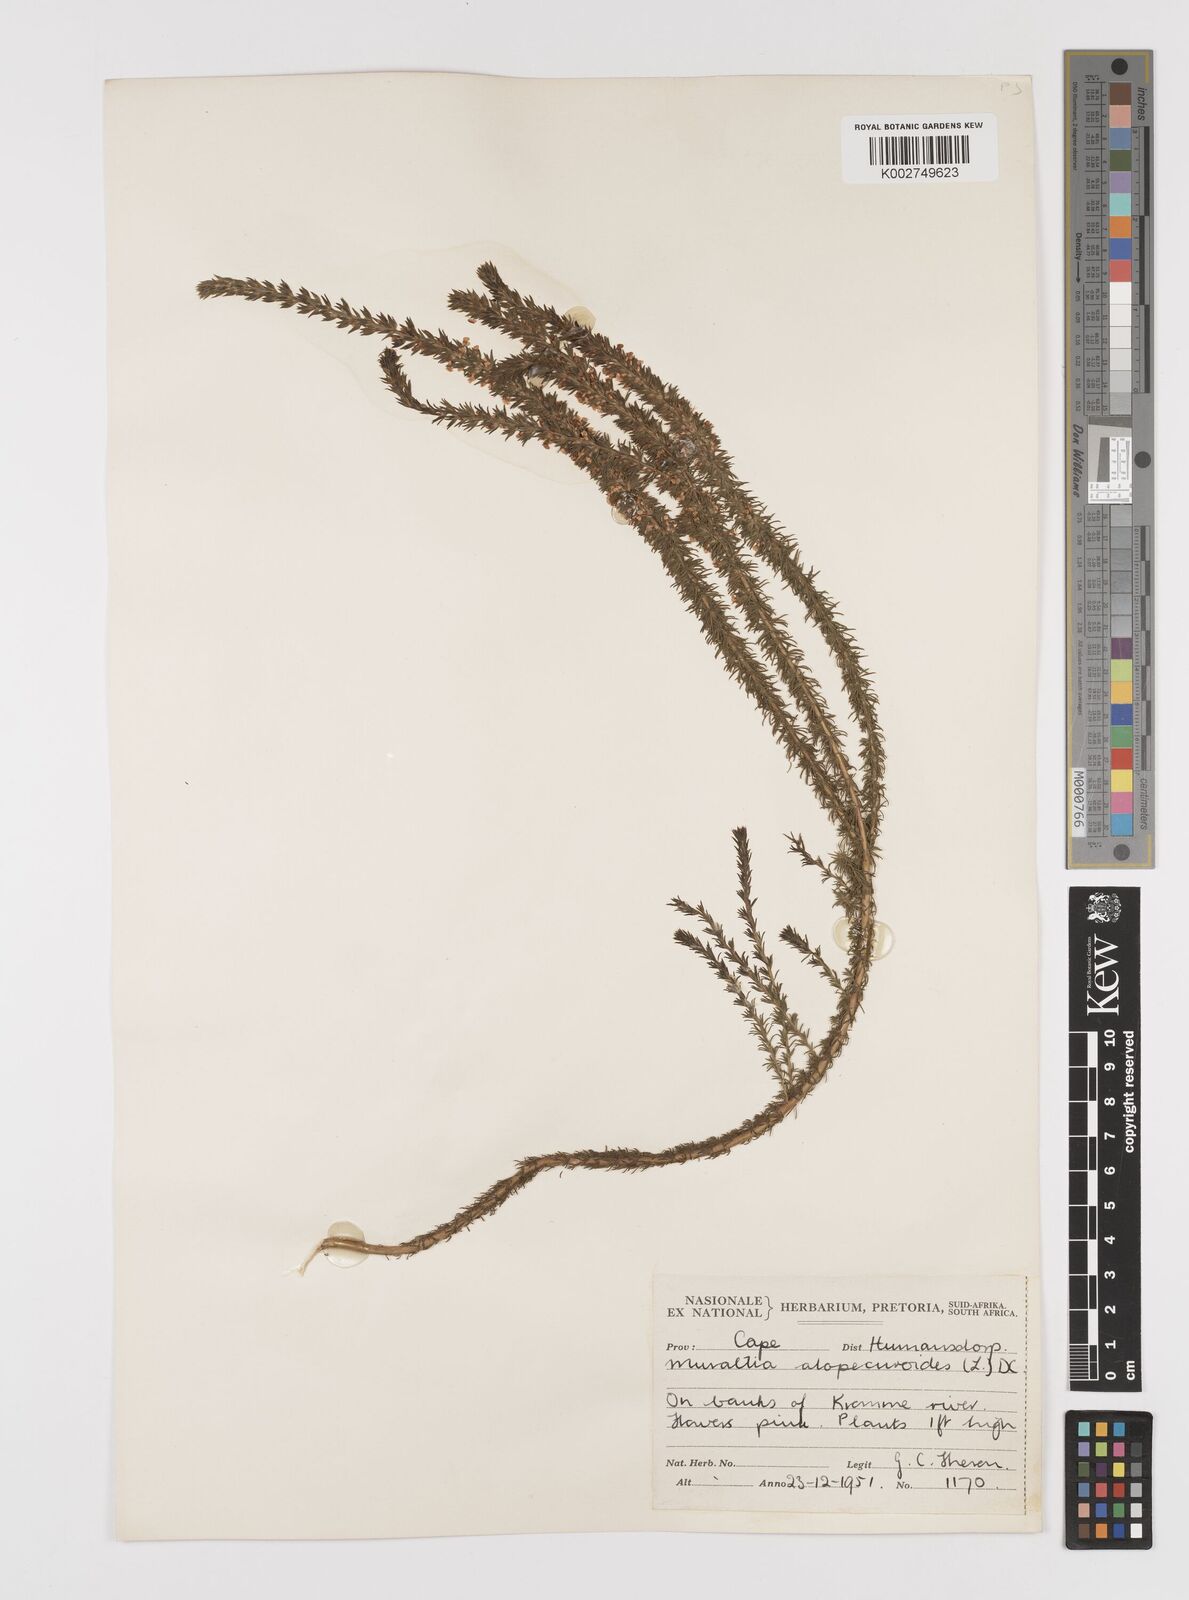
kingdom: Plantae
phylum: Tracheophyta
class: Magnoliopsida
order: Fabales
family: Polygalaceae
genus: Muraltia
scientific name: Muraltia alopecuroides
